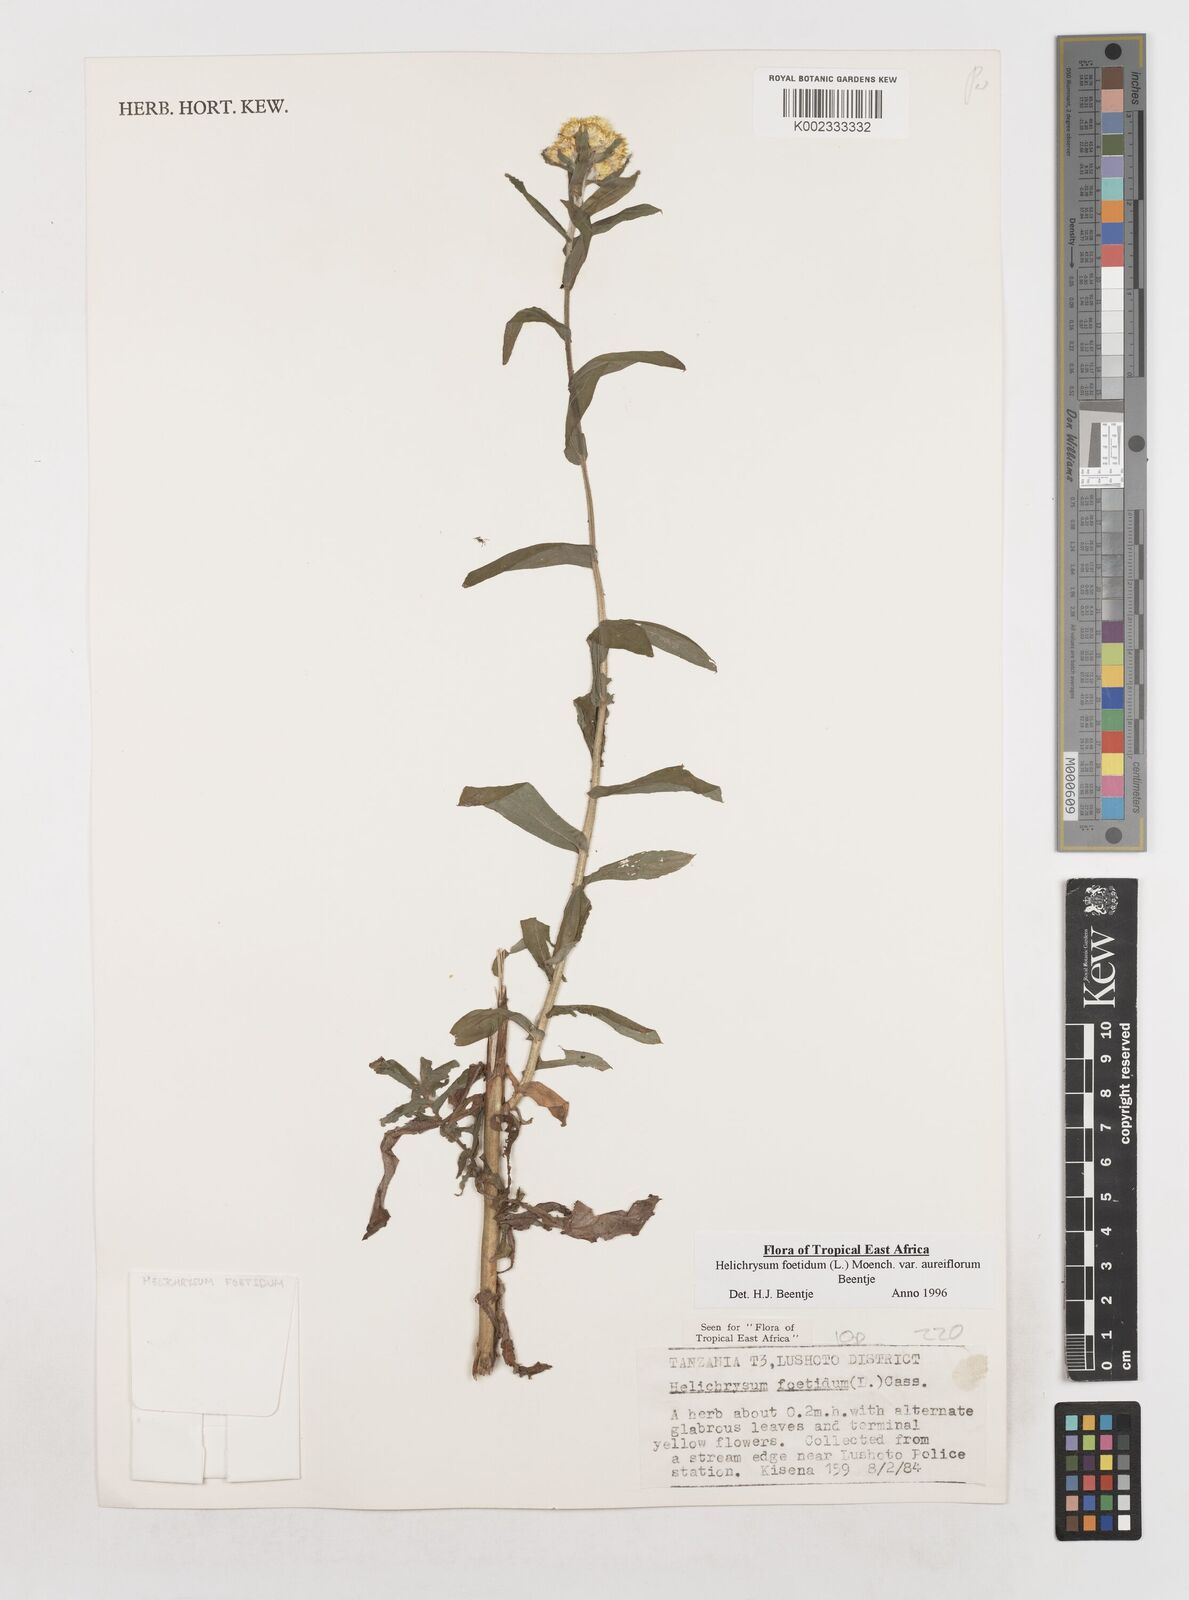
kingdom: Plantae
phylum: Tracheophyta
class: Magnoliopsida
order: Asterales
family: Asteraceae
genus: Helichrysum
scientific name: Helichrysum foetidum
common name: Stinking everlasting
